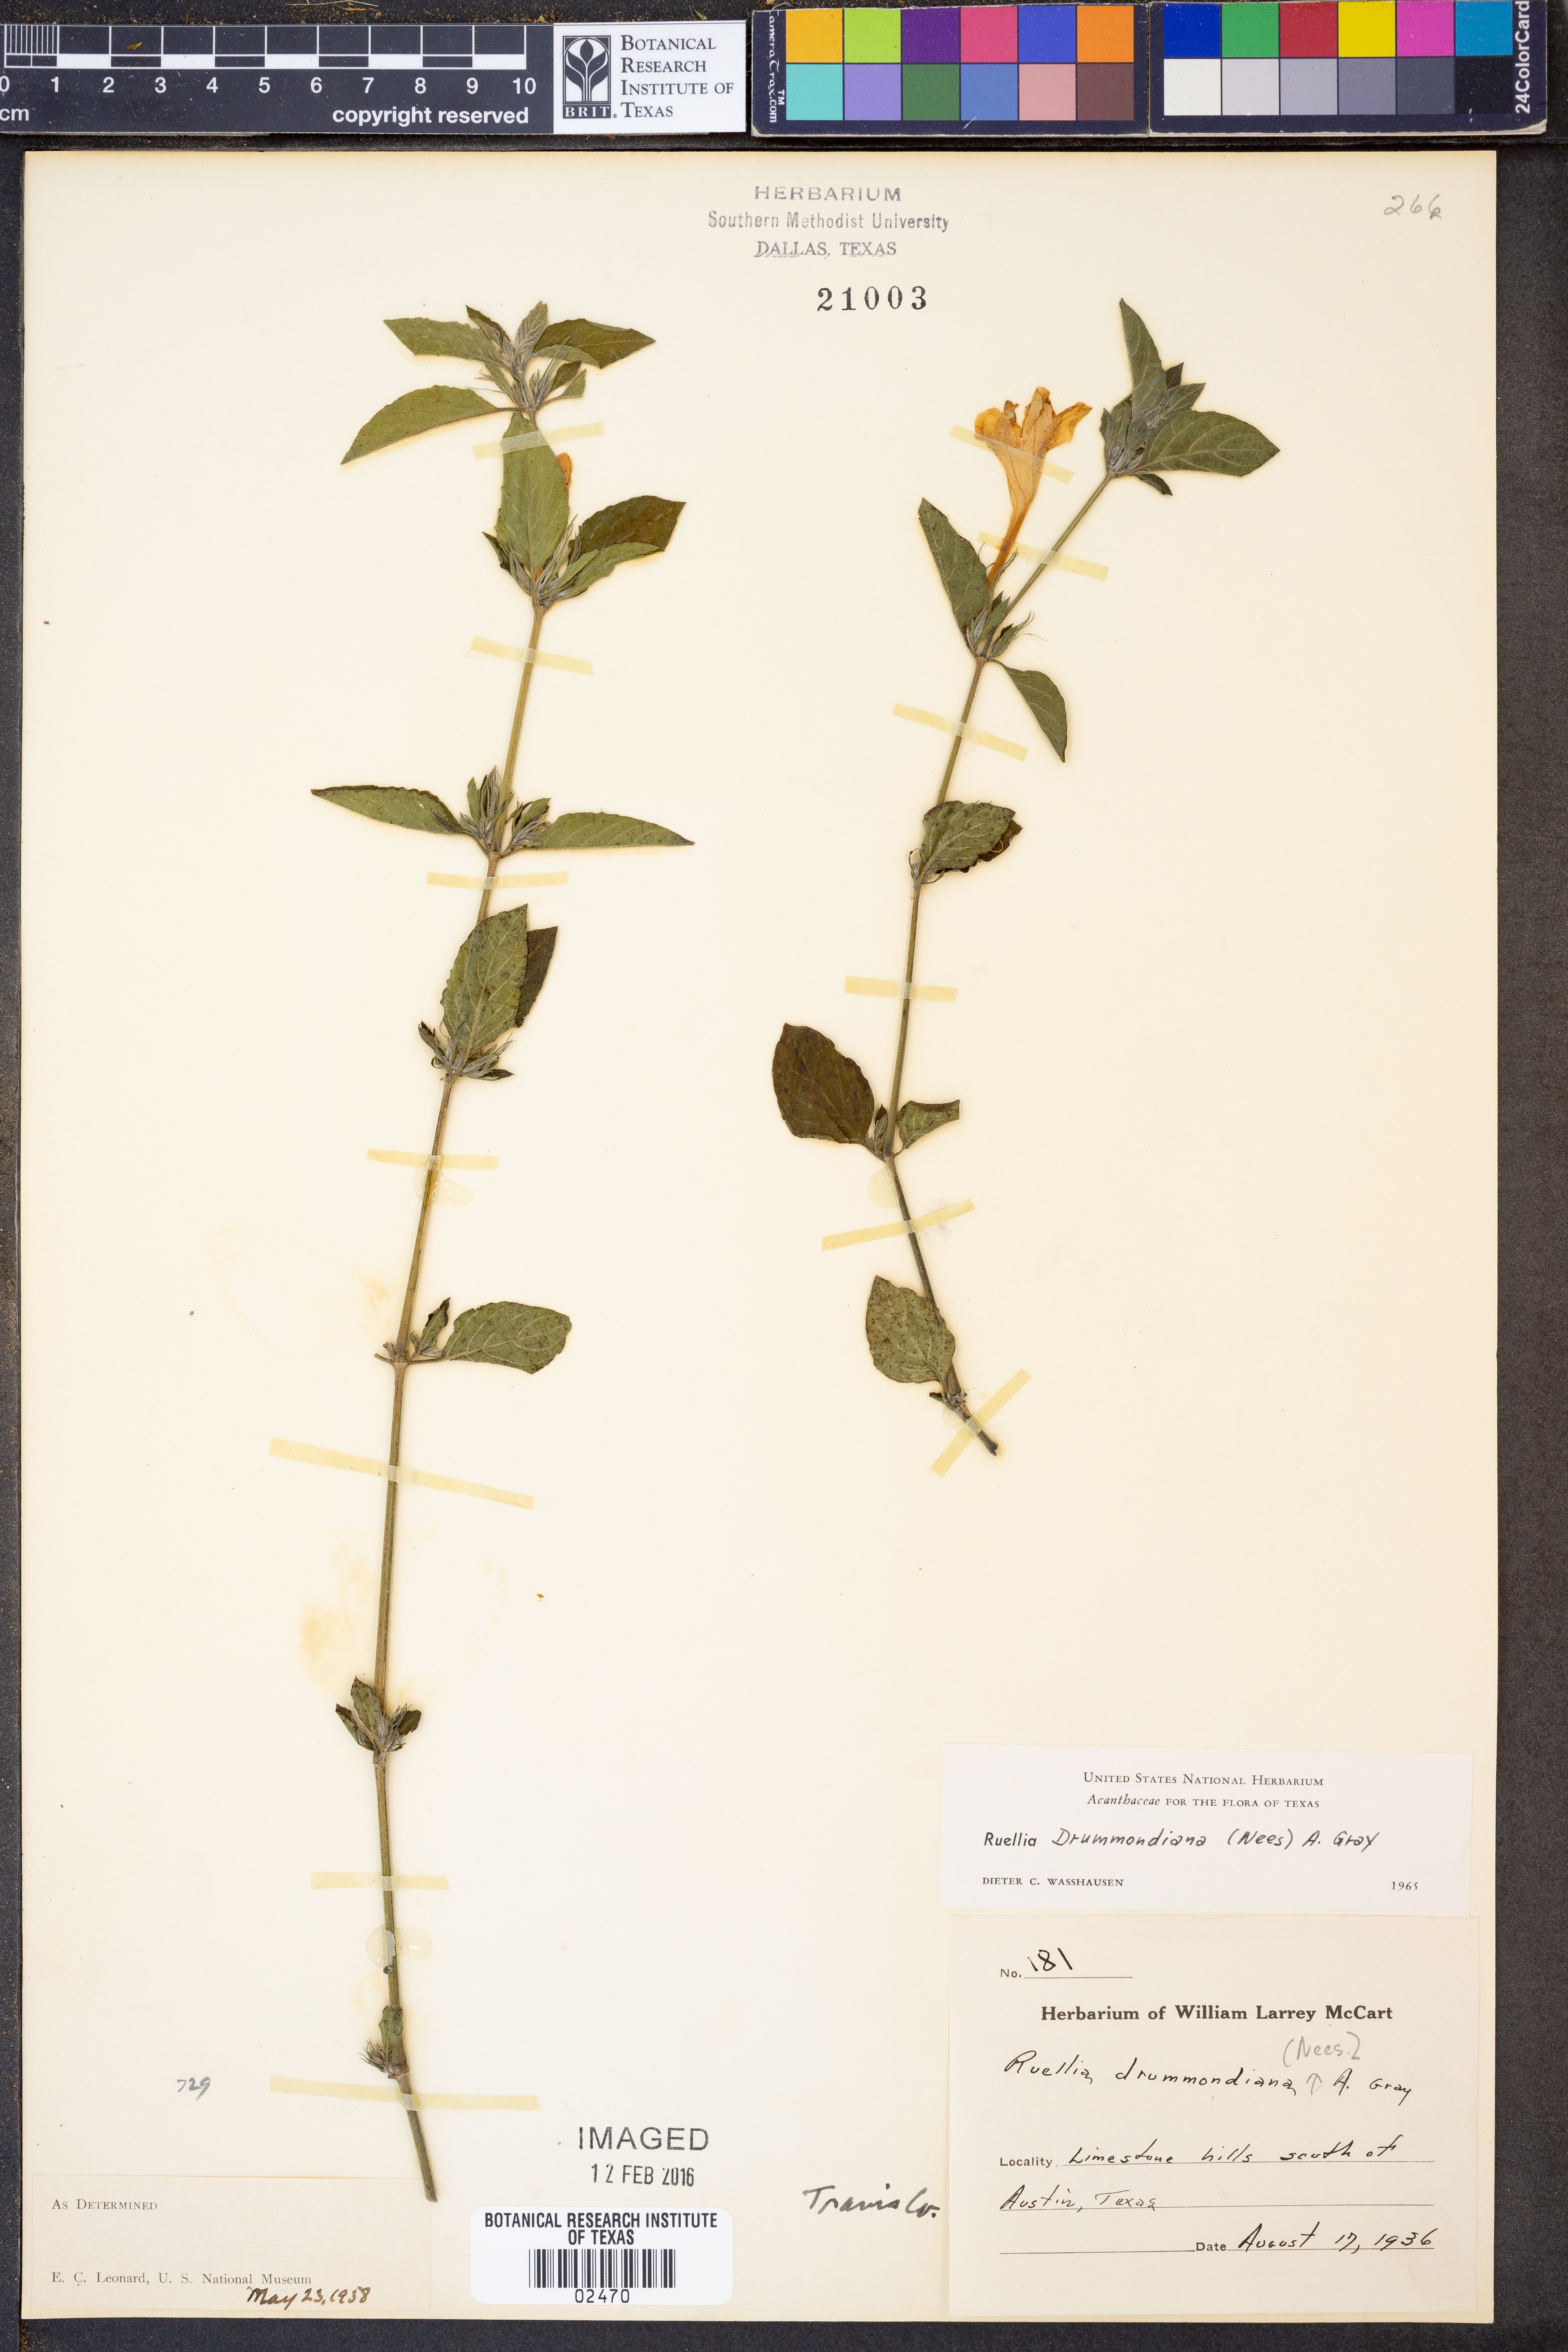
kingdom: Plantae
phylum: Tracheophyta
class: Magnoliopsida
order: Lamiales
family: Acanthaceae
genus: Ruellia
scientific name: Ruellia drummondiana
